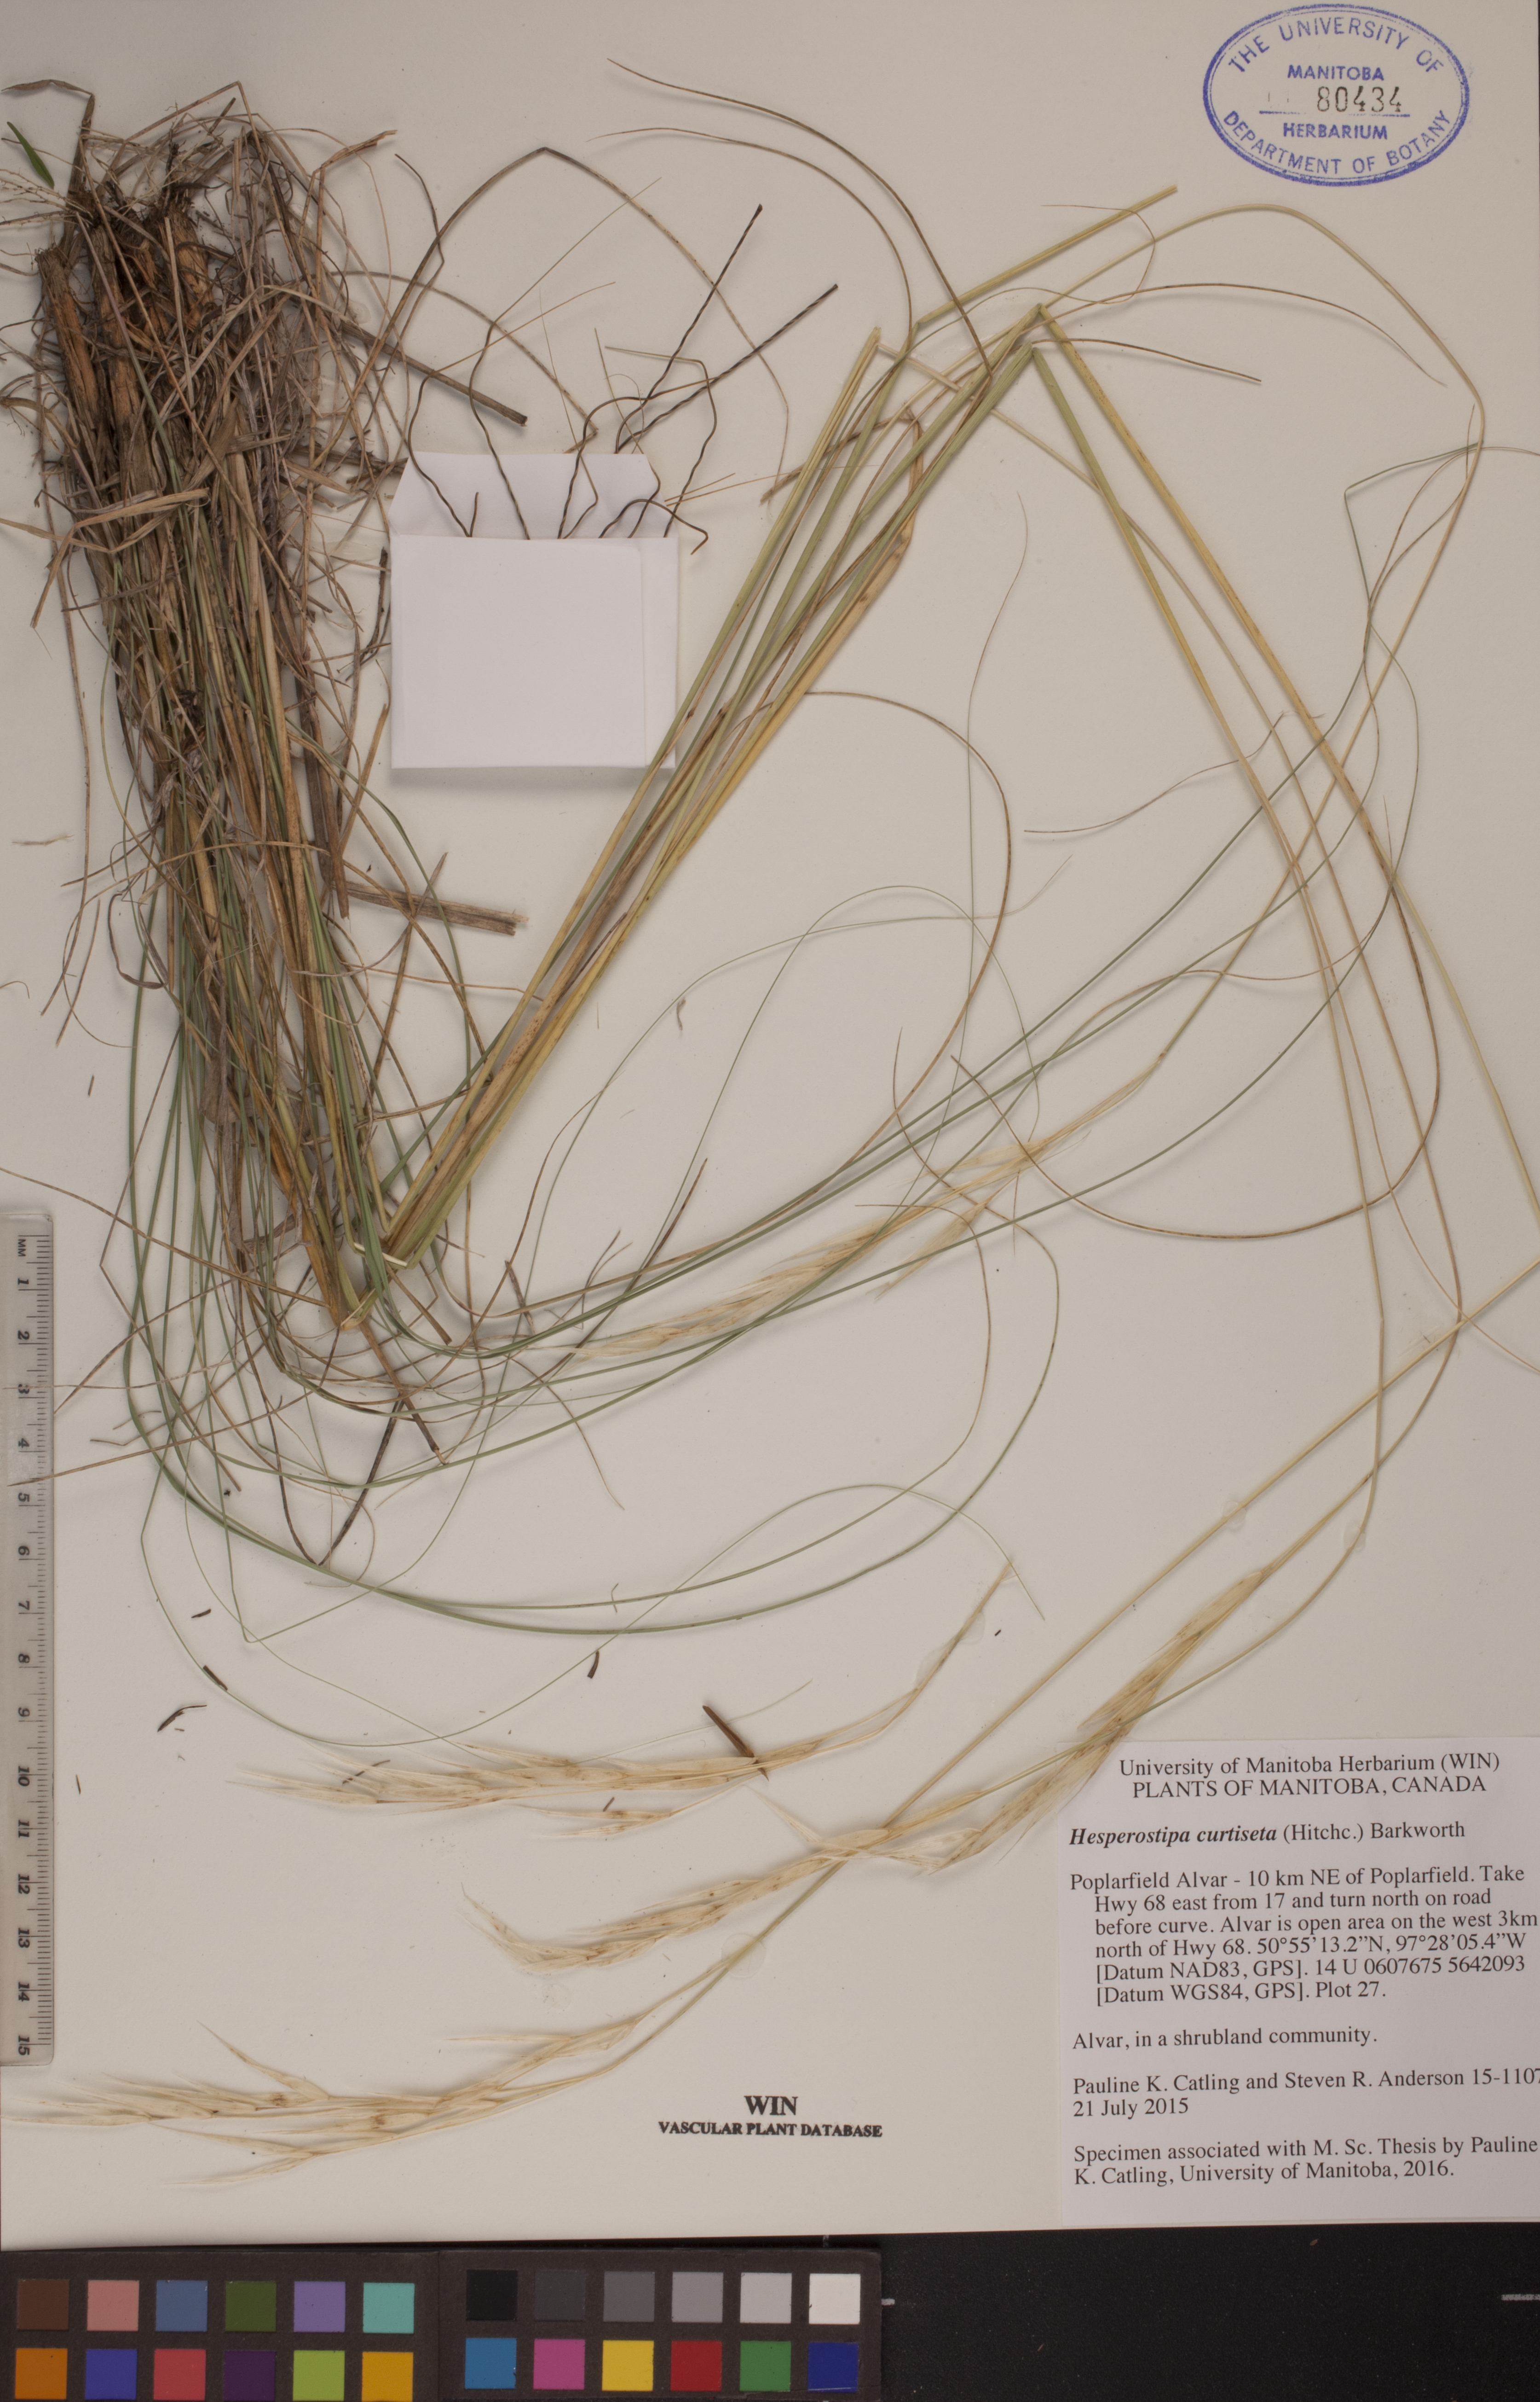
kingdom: Plantae
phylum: Tracheophyta
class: Liliopsida
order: Poales
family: Poaceae
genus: Hesperostipa
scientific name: Hesperostipa curtiseta
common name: Canada needle-and-thread grass
